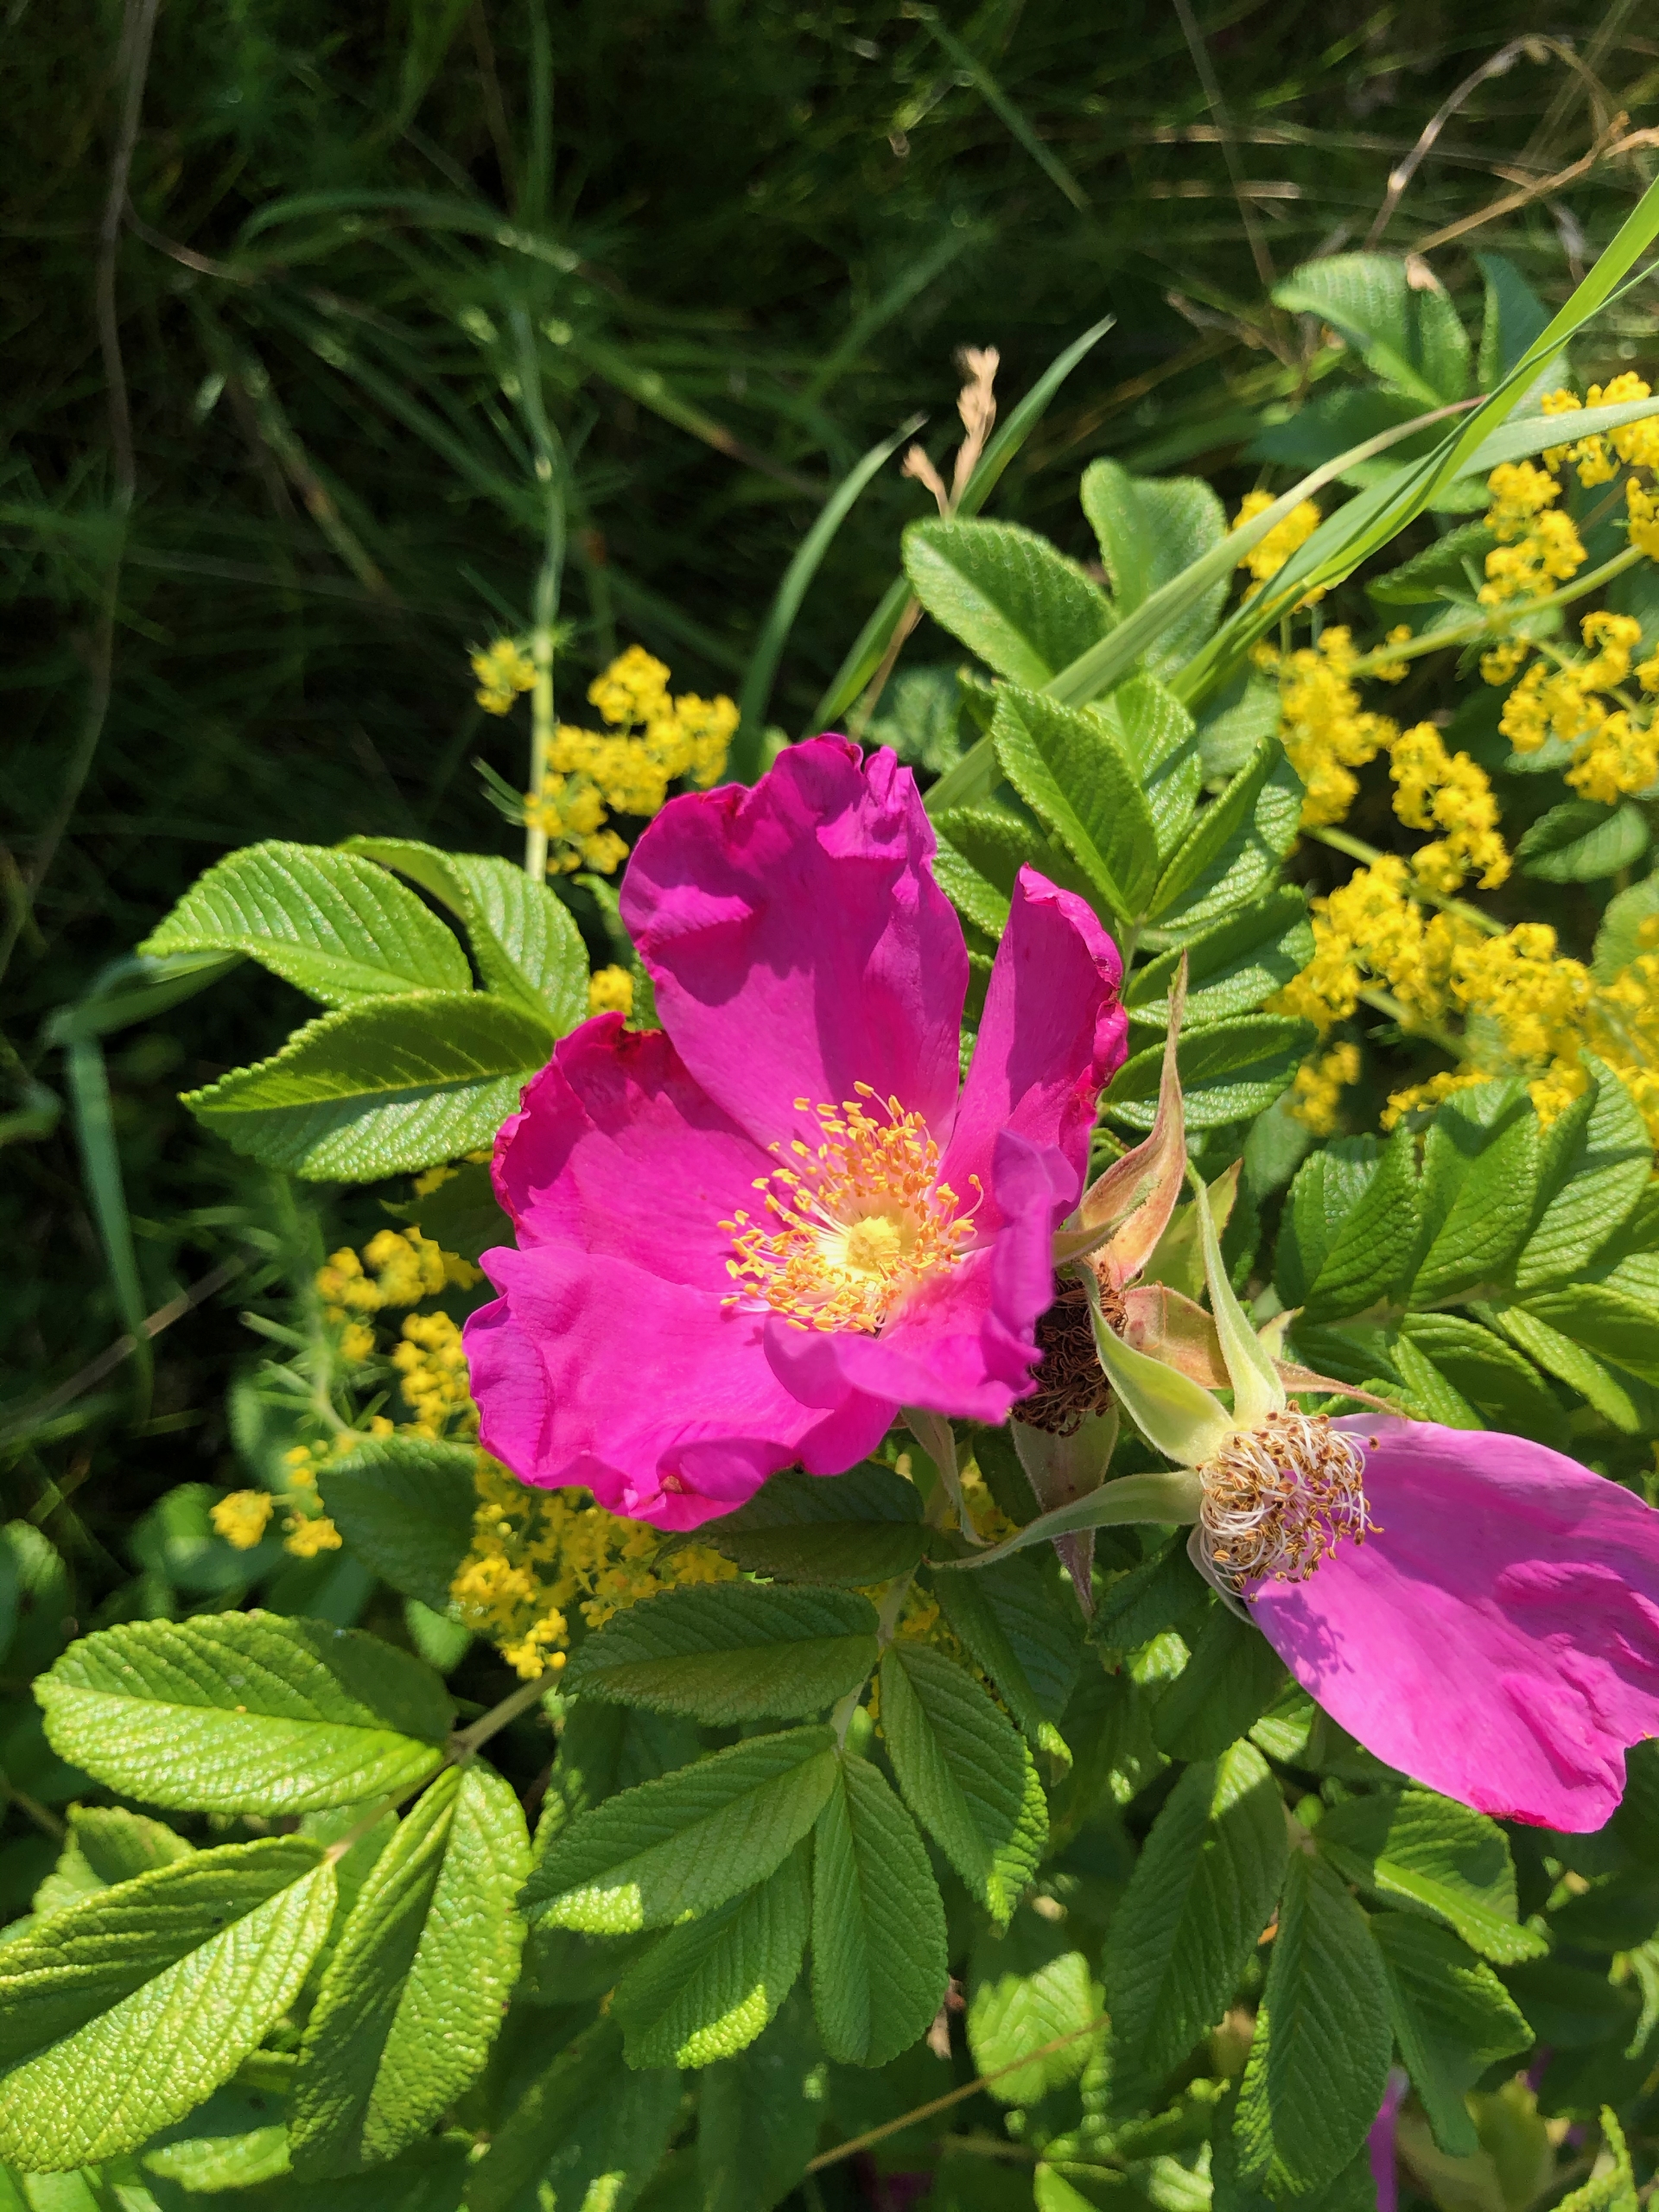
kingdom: Plantae
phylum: Tracheophyta
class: Magnoliopsida
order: Rosales
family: Rosaceae
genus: Rosa
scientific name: Rosa rugosa
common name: Rynket rose
